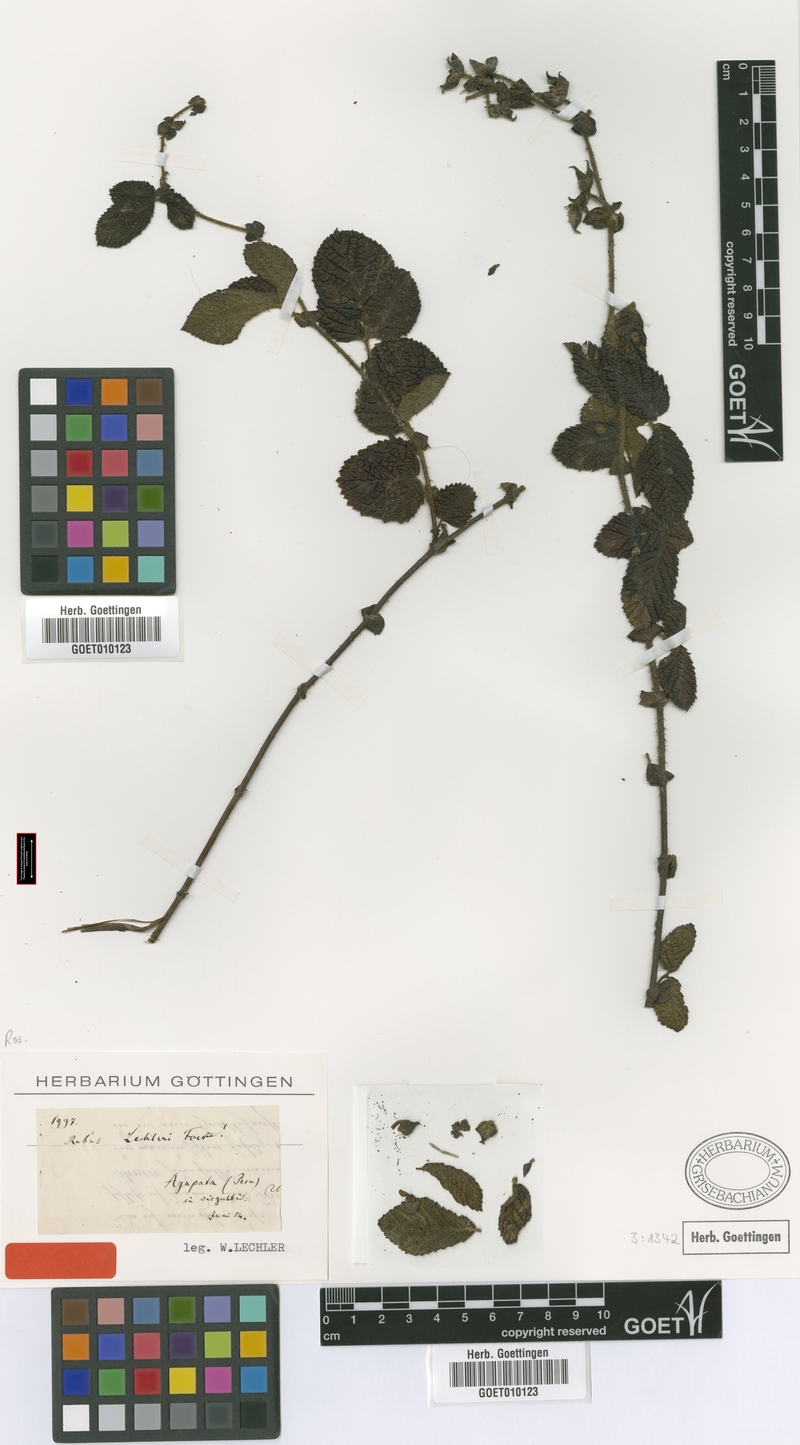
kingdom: Plantae
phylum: Tracheophyta
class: Magnoliopsida
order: Rosales
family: Rosaceae
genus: Rubus
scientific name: Rubus lechleri
